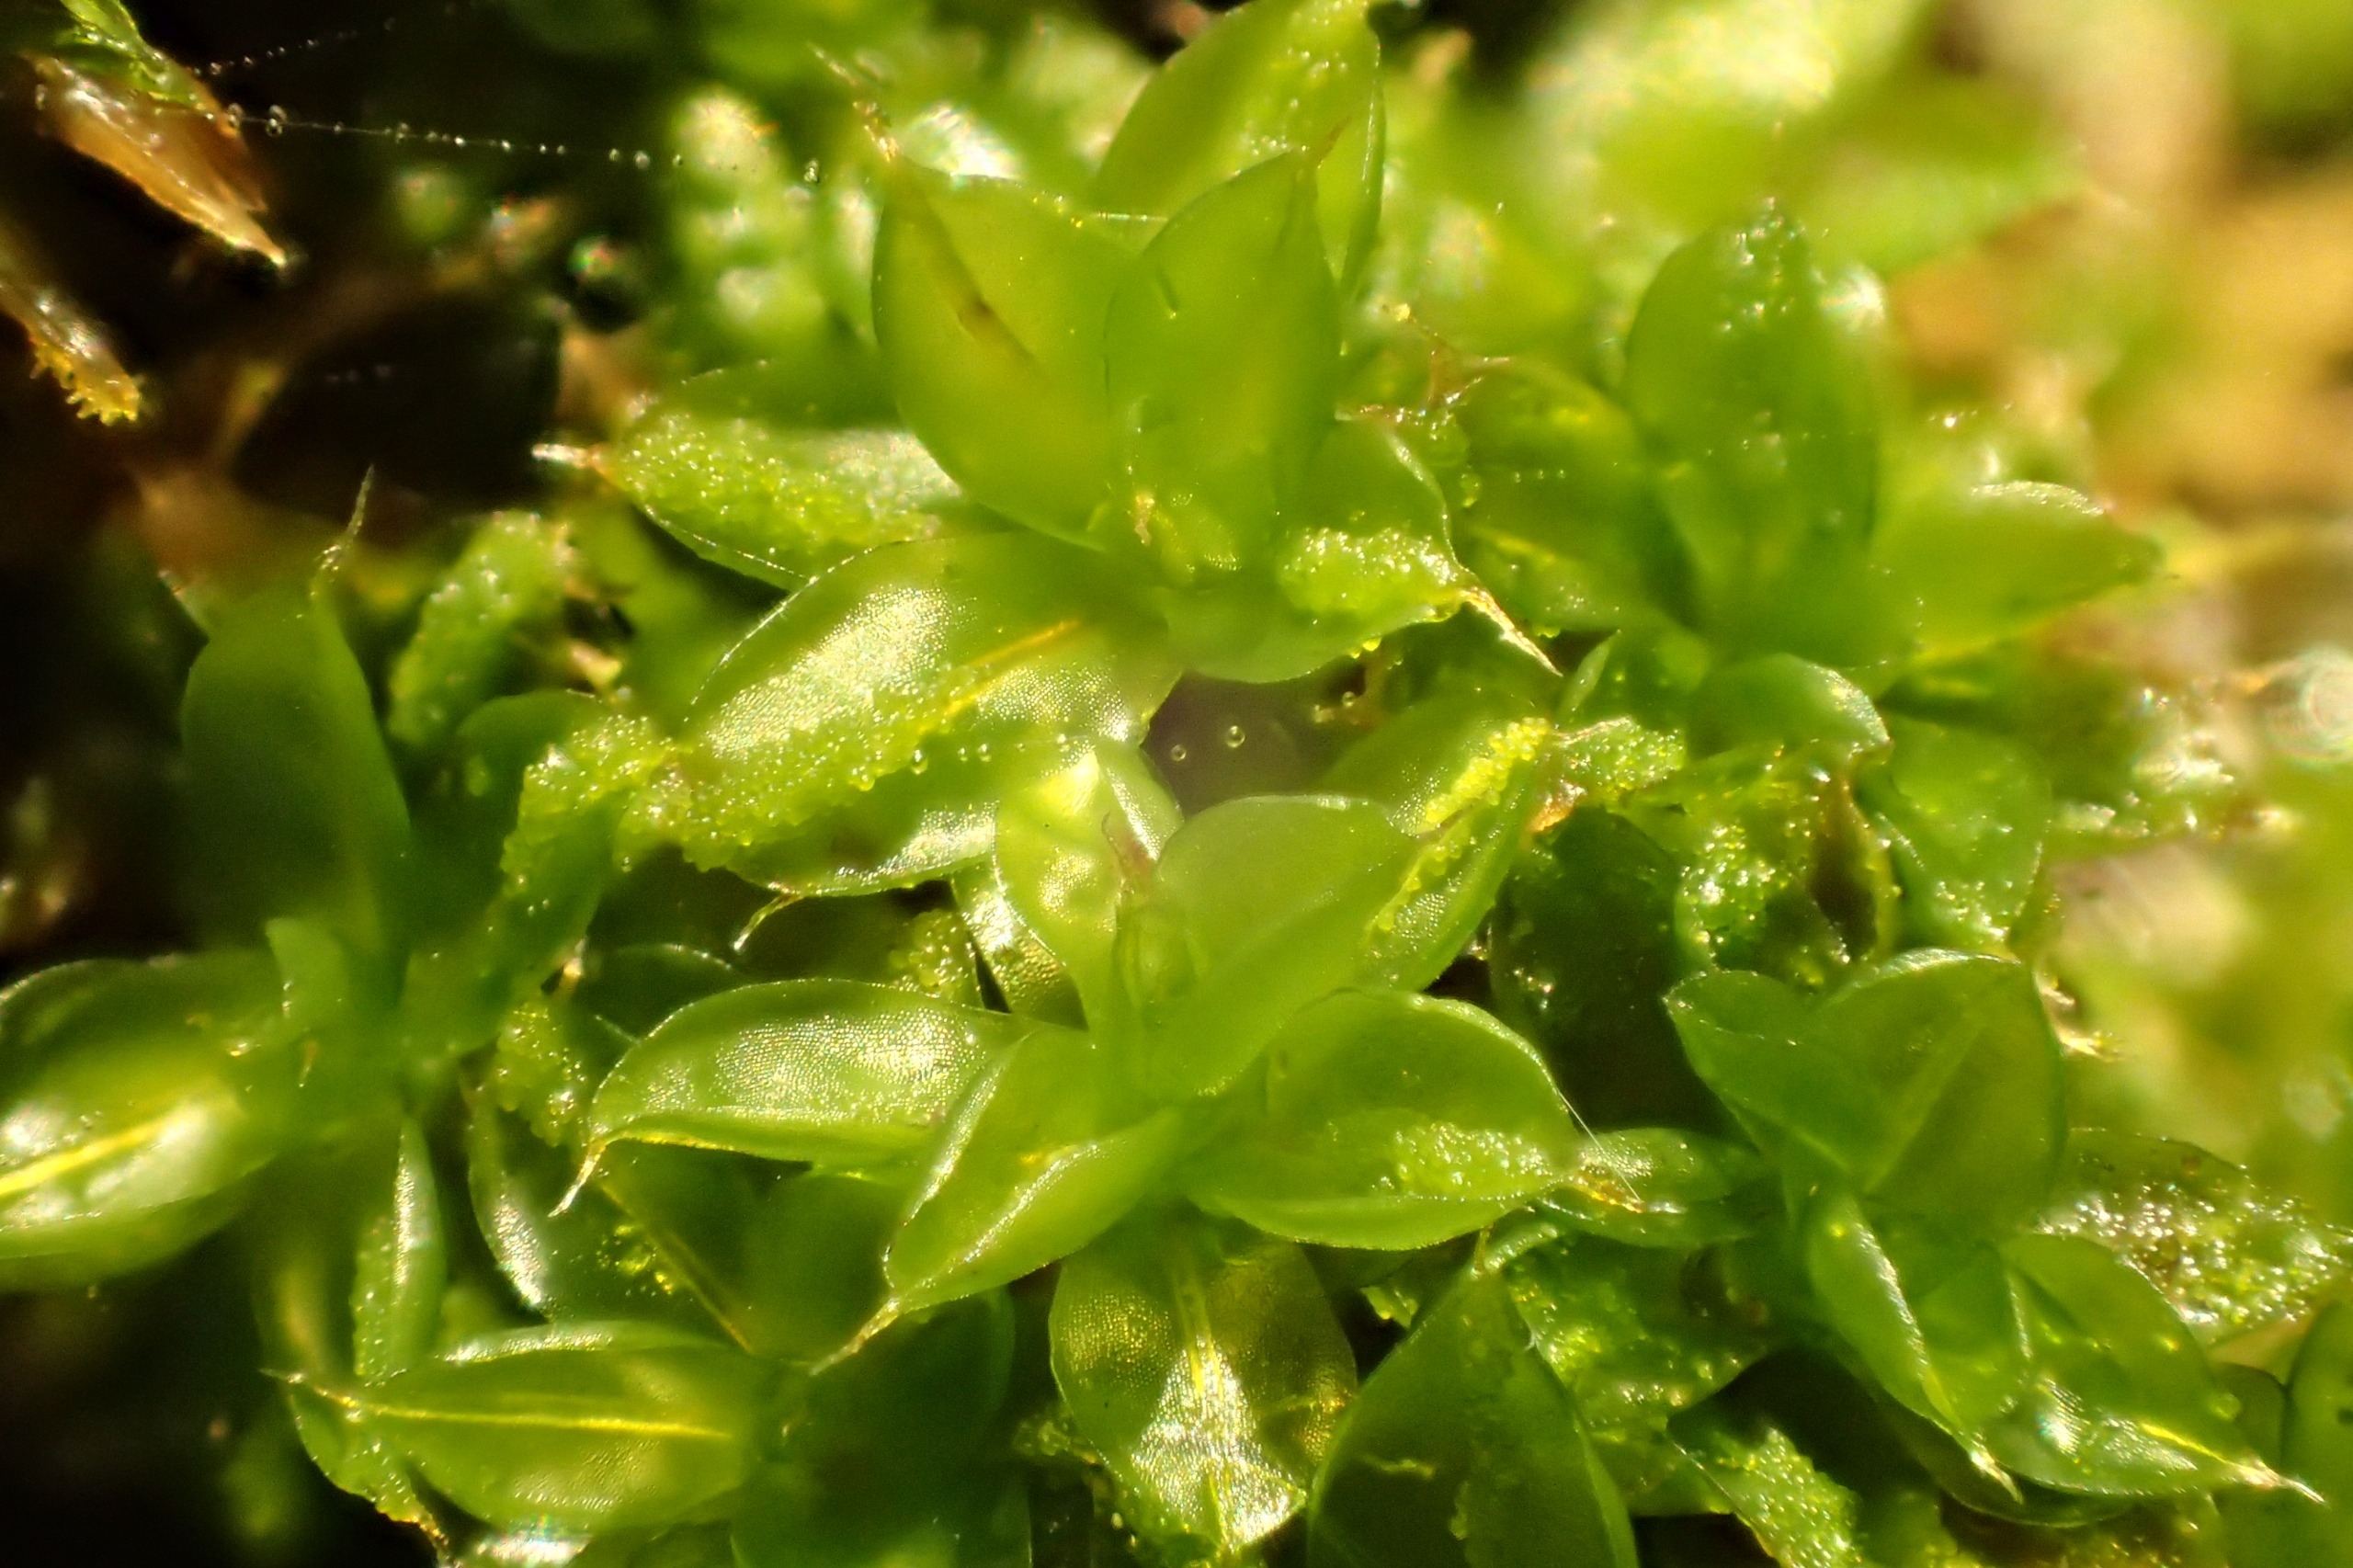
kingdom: Plantae
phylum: Bryophyta
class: Bryopsida
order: Pottiales
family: Pottiaceae
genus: Syntrichia
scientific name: Syntrichia papillosa
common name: Bark-hårstjerne
